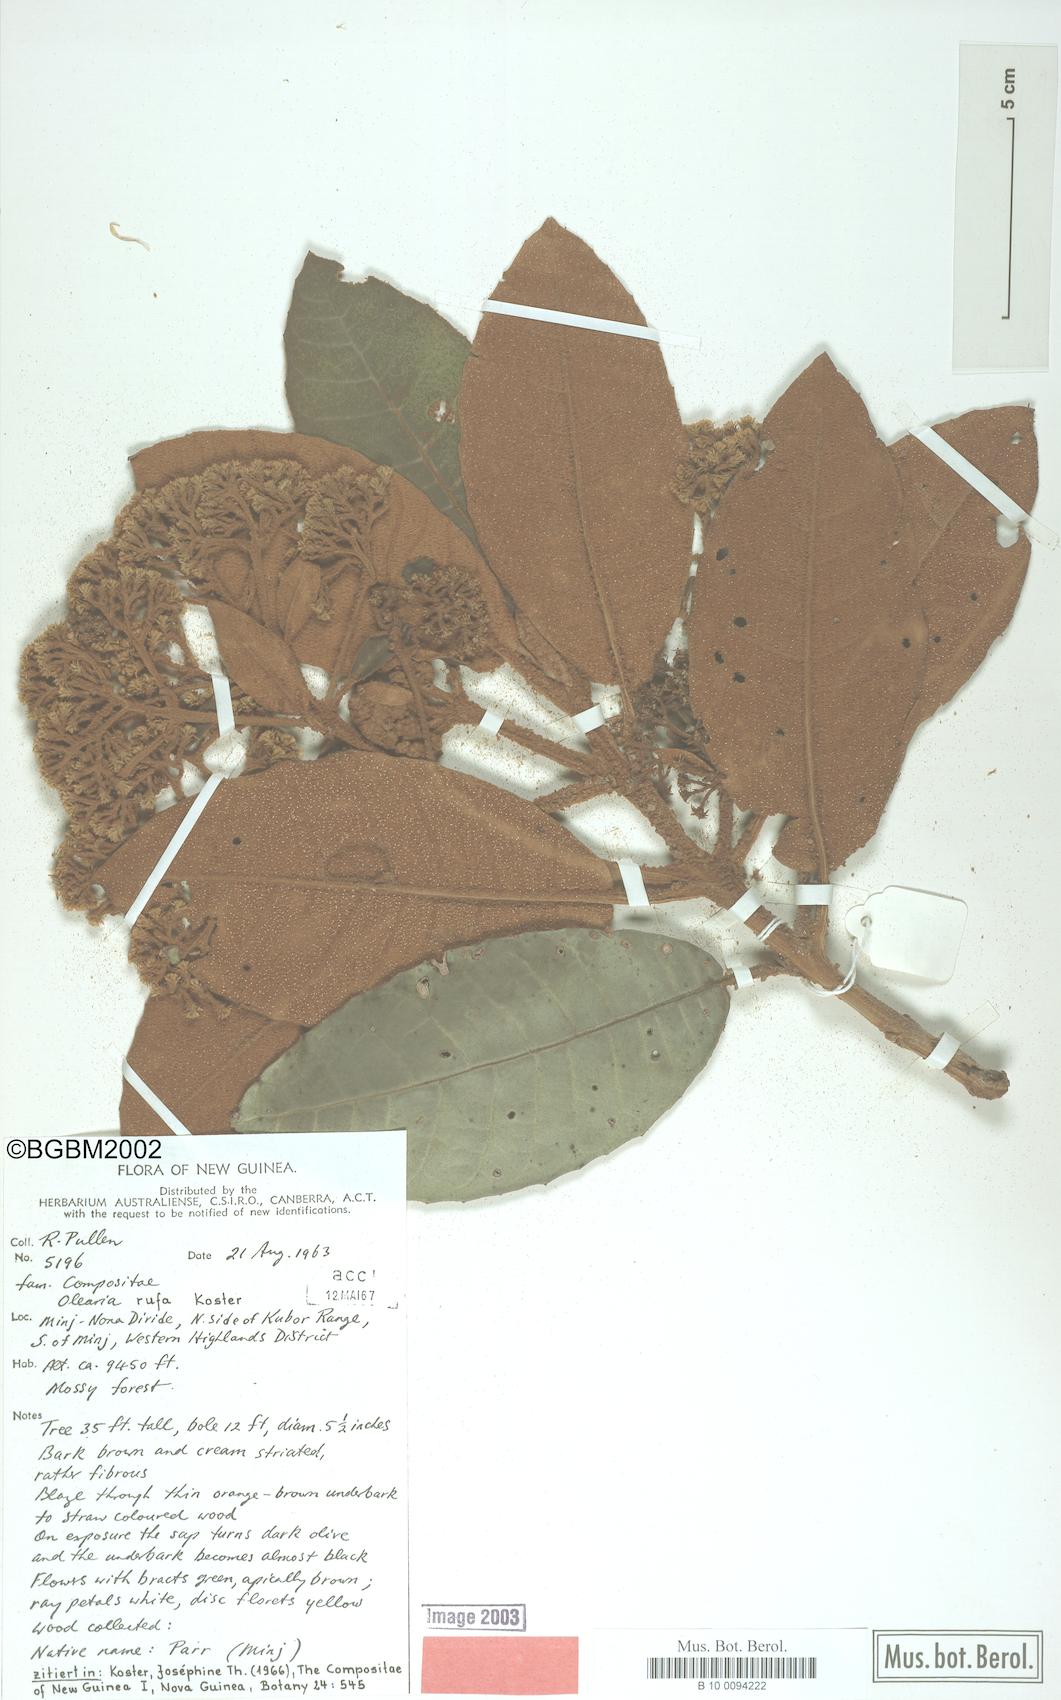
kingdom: Plantae
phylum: Tracheophyta
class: Magnoliopsida
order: Asterales
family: Asteraceae
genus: Olearia
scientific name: Olearia rufa
